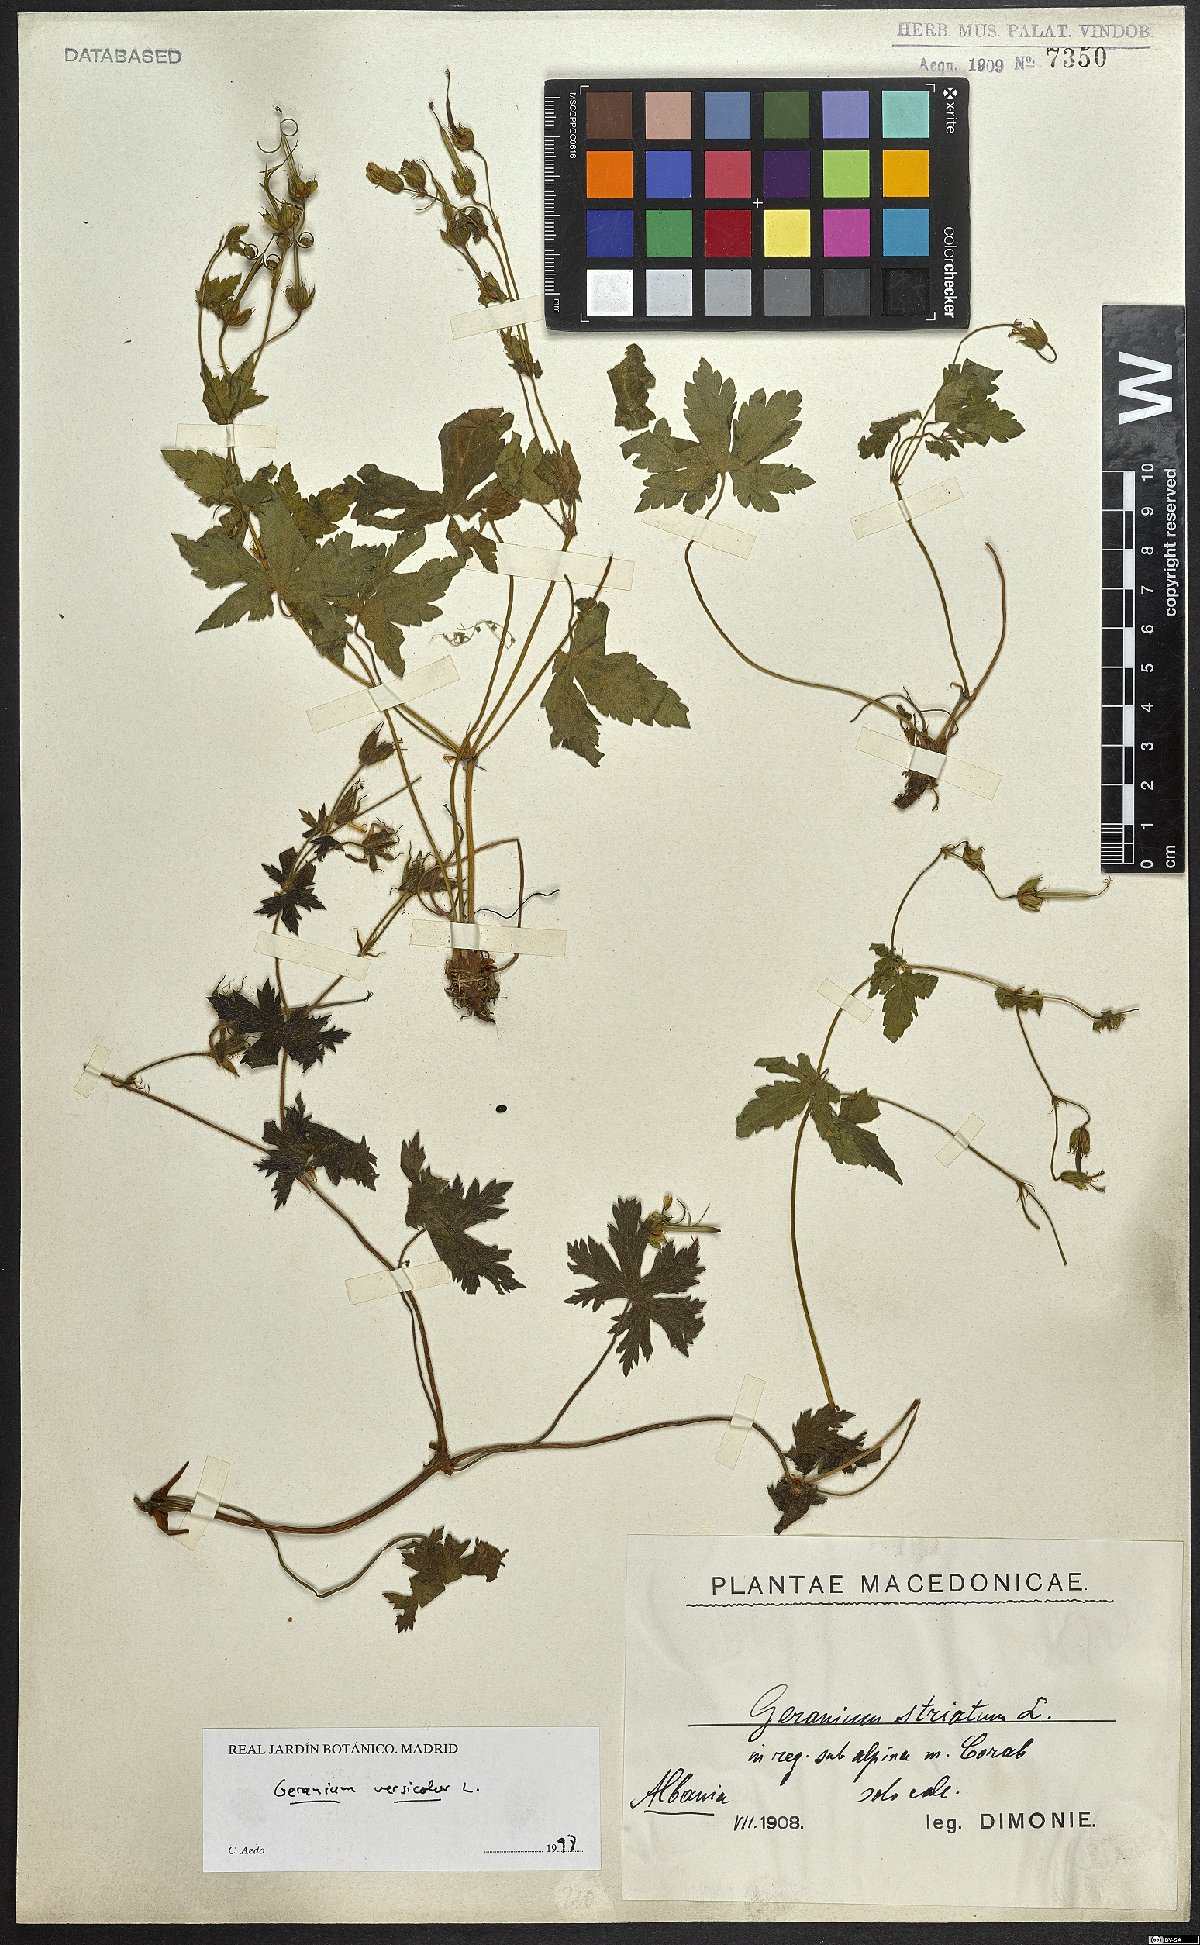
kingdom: Plantae
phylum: Tracheophyta
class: Magnoliopsida
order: Geraniales
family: Geraniaceae
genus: Geranium
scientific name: Geranium versicolor
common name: Pencilled crane's-bill
